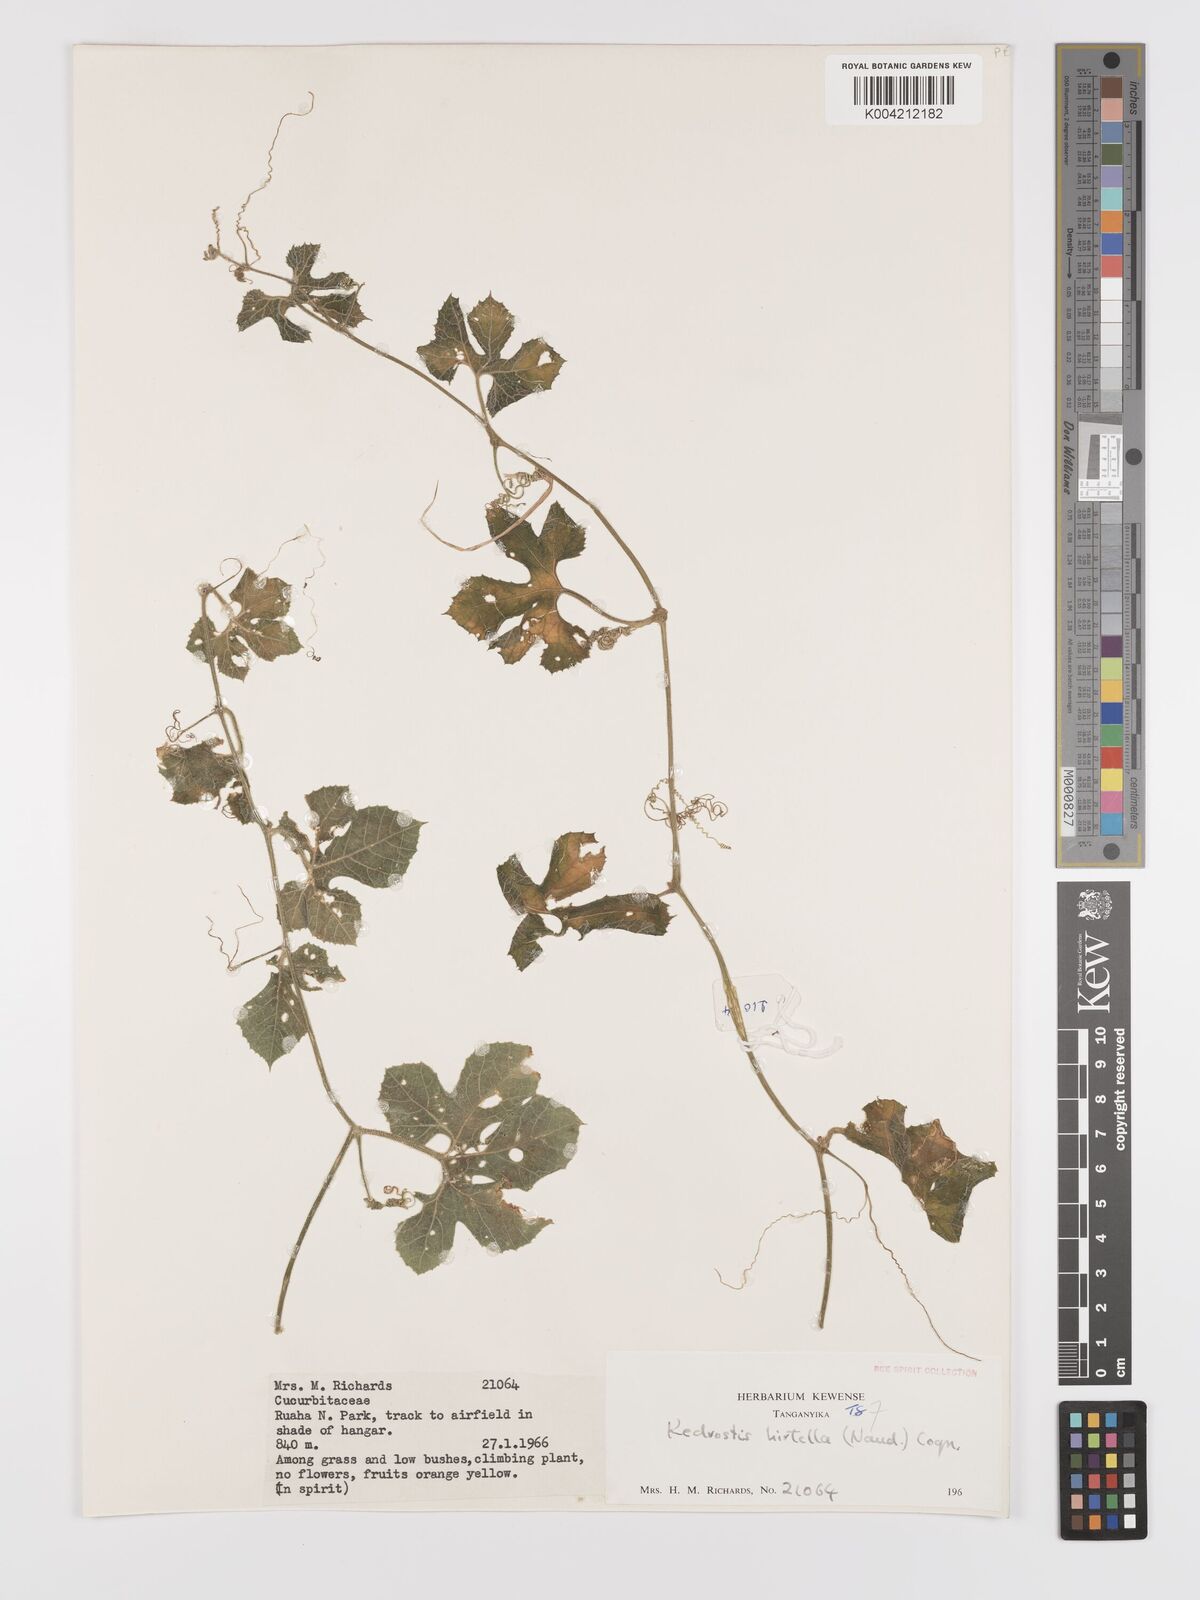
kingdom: Plantae
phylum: Tracheophyta
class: Magnoliopsida
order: Cucurbitales
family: Cucurbitaceae
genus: Kedrostis
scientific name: Kedrostis leloja
